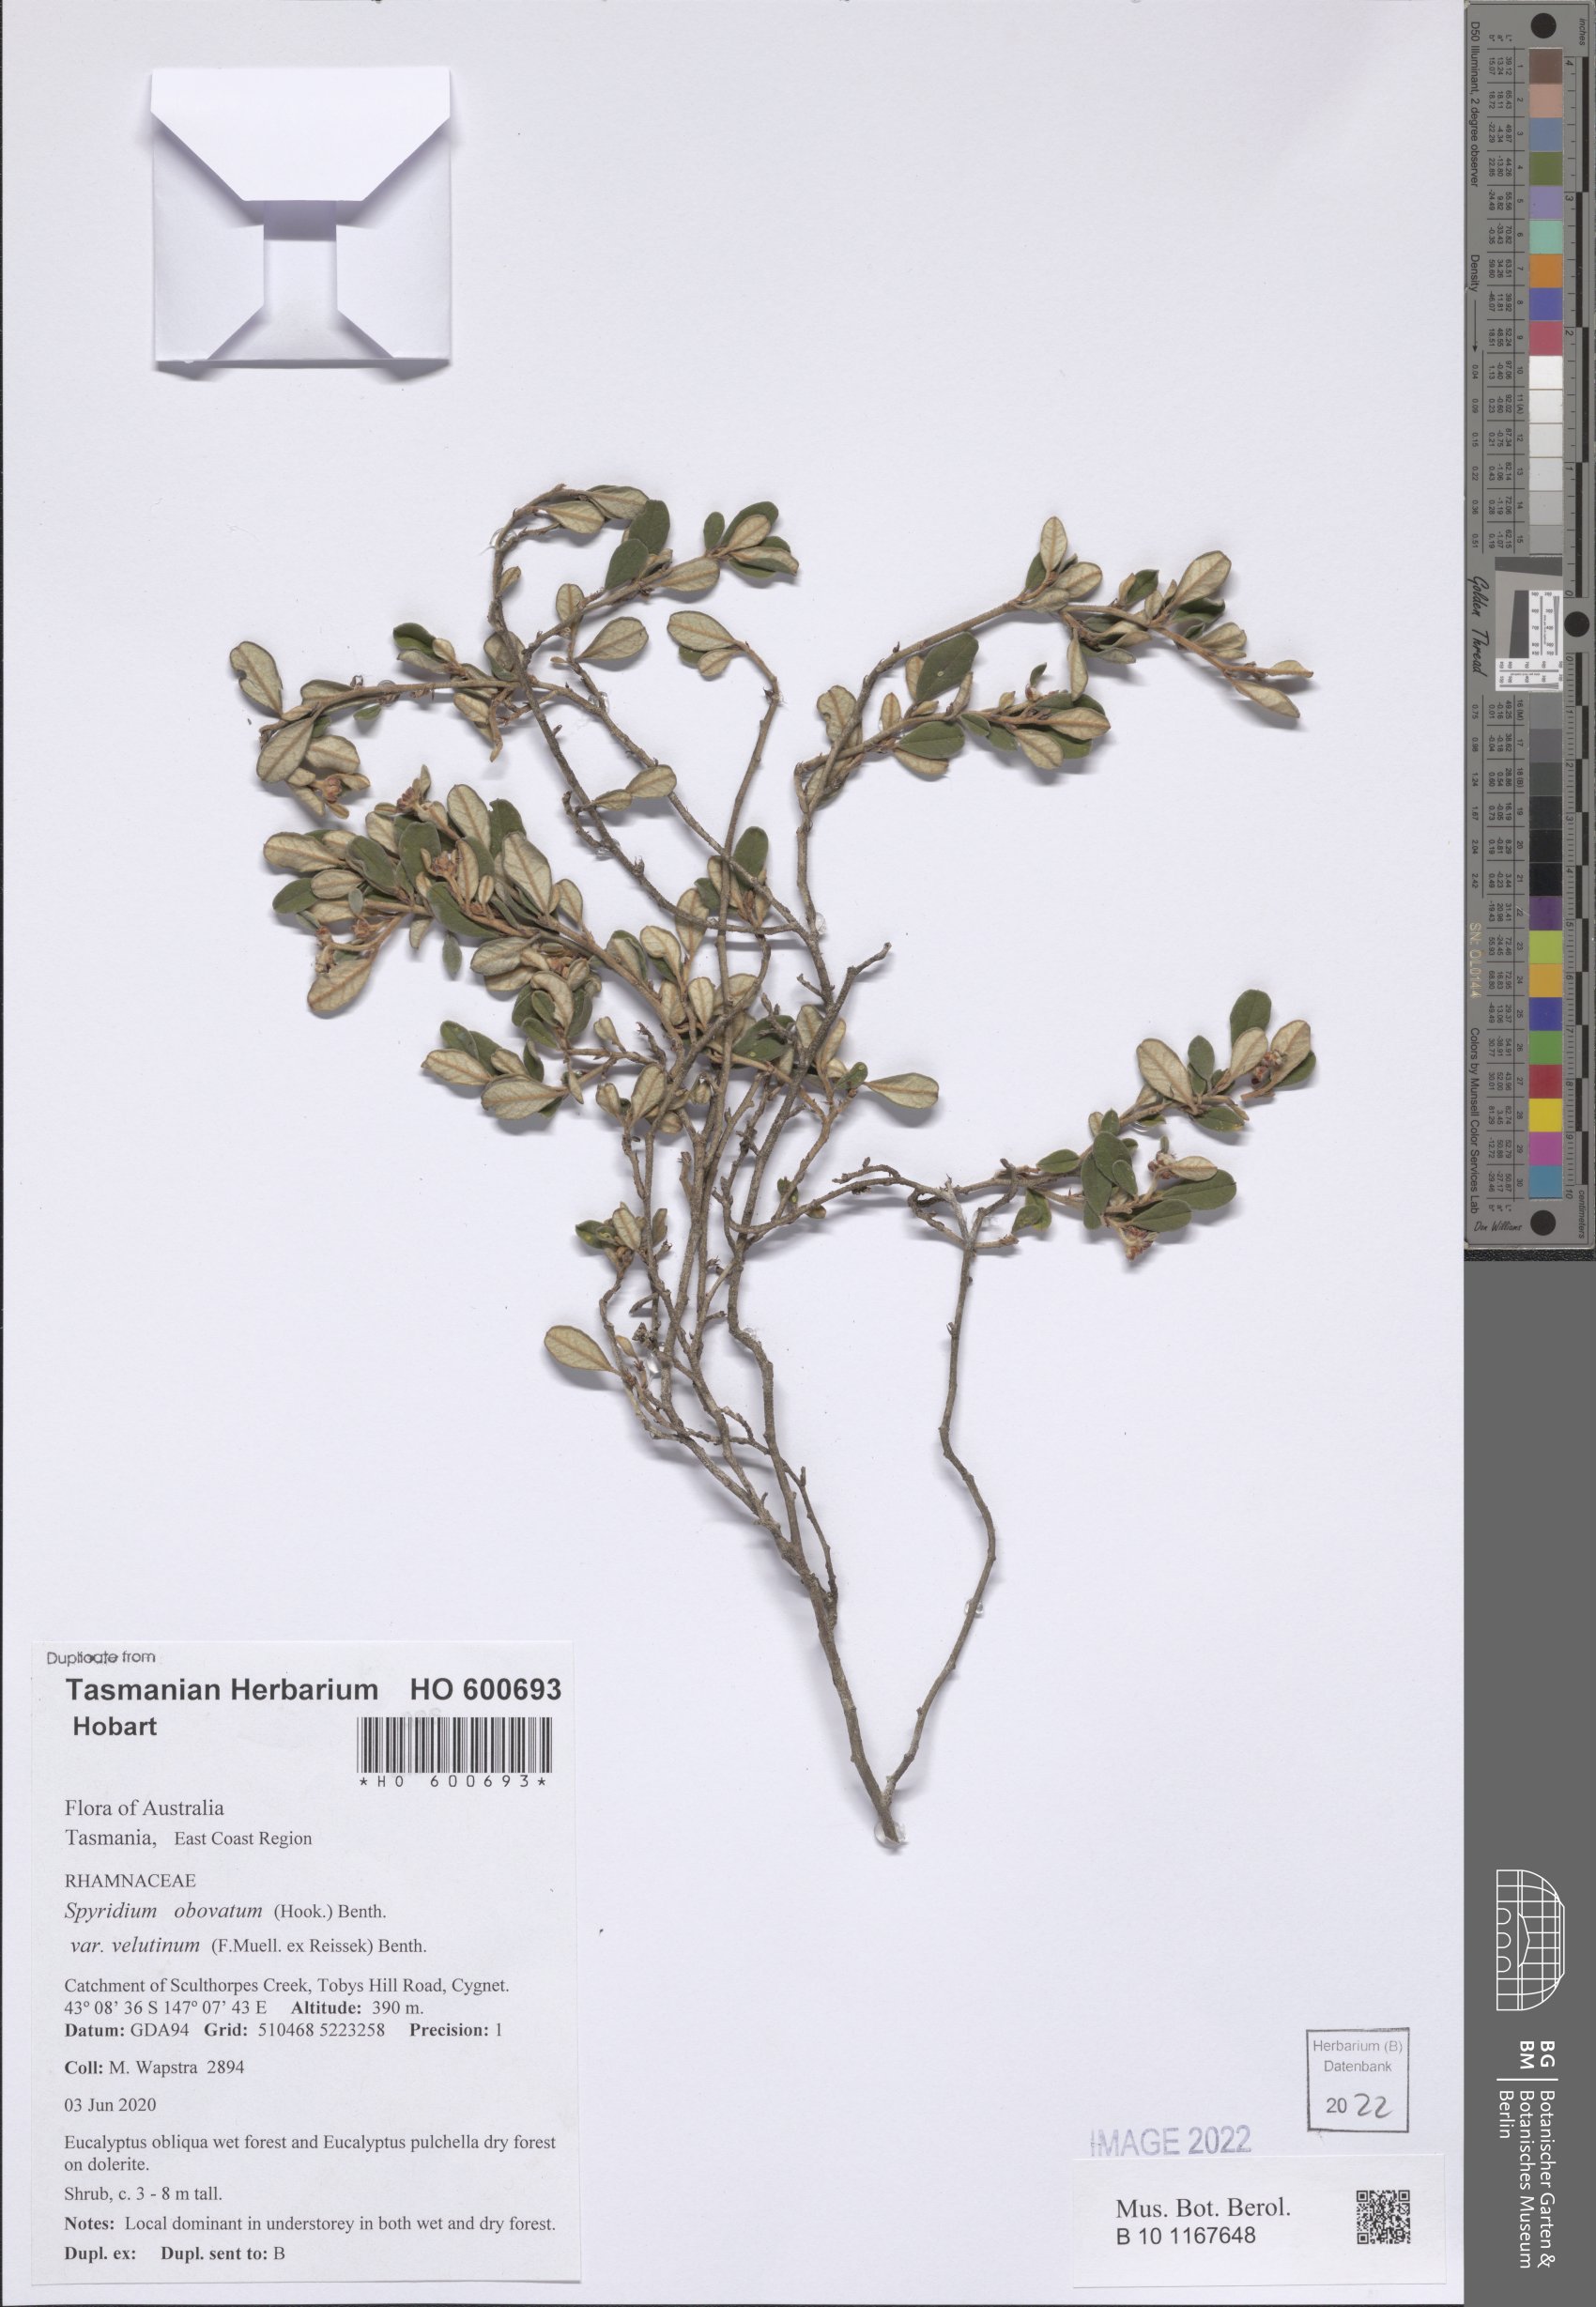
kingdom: Plantae
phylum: Tracheophyta
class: Magnoliopsida
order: Rosales
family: Rhamnaceae
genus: Spyridium
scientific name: Spyridium obovatum
